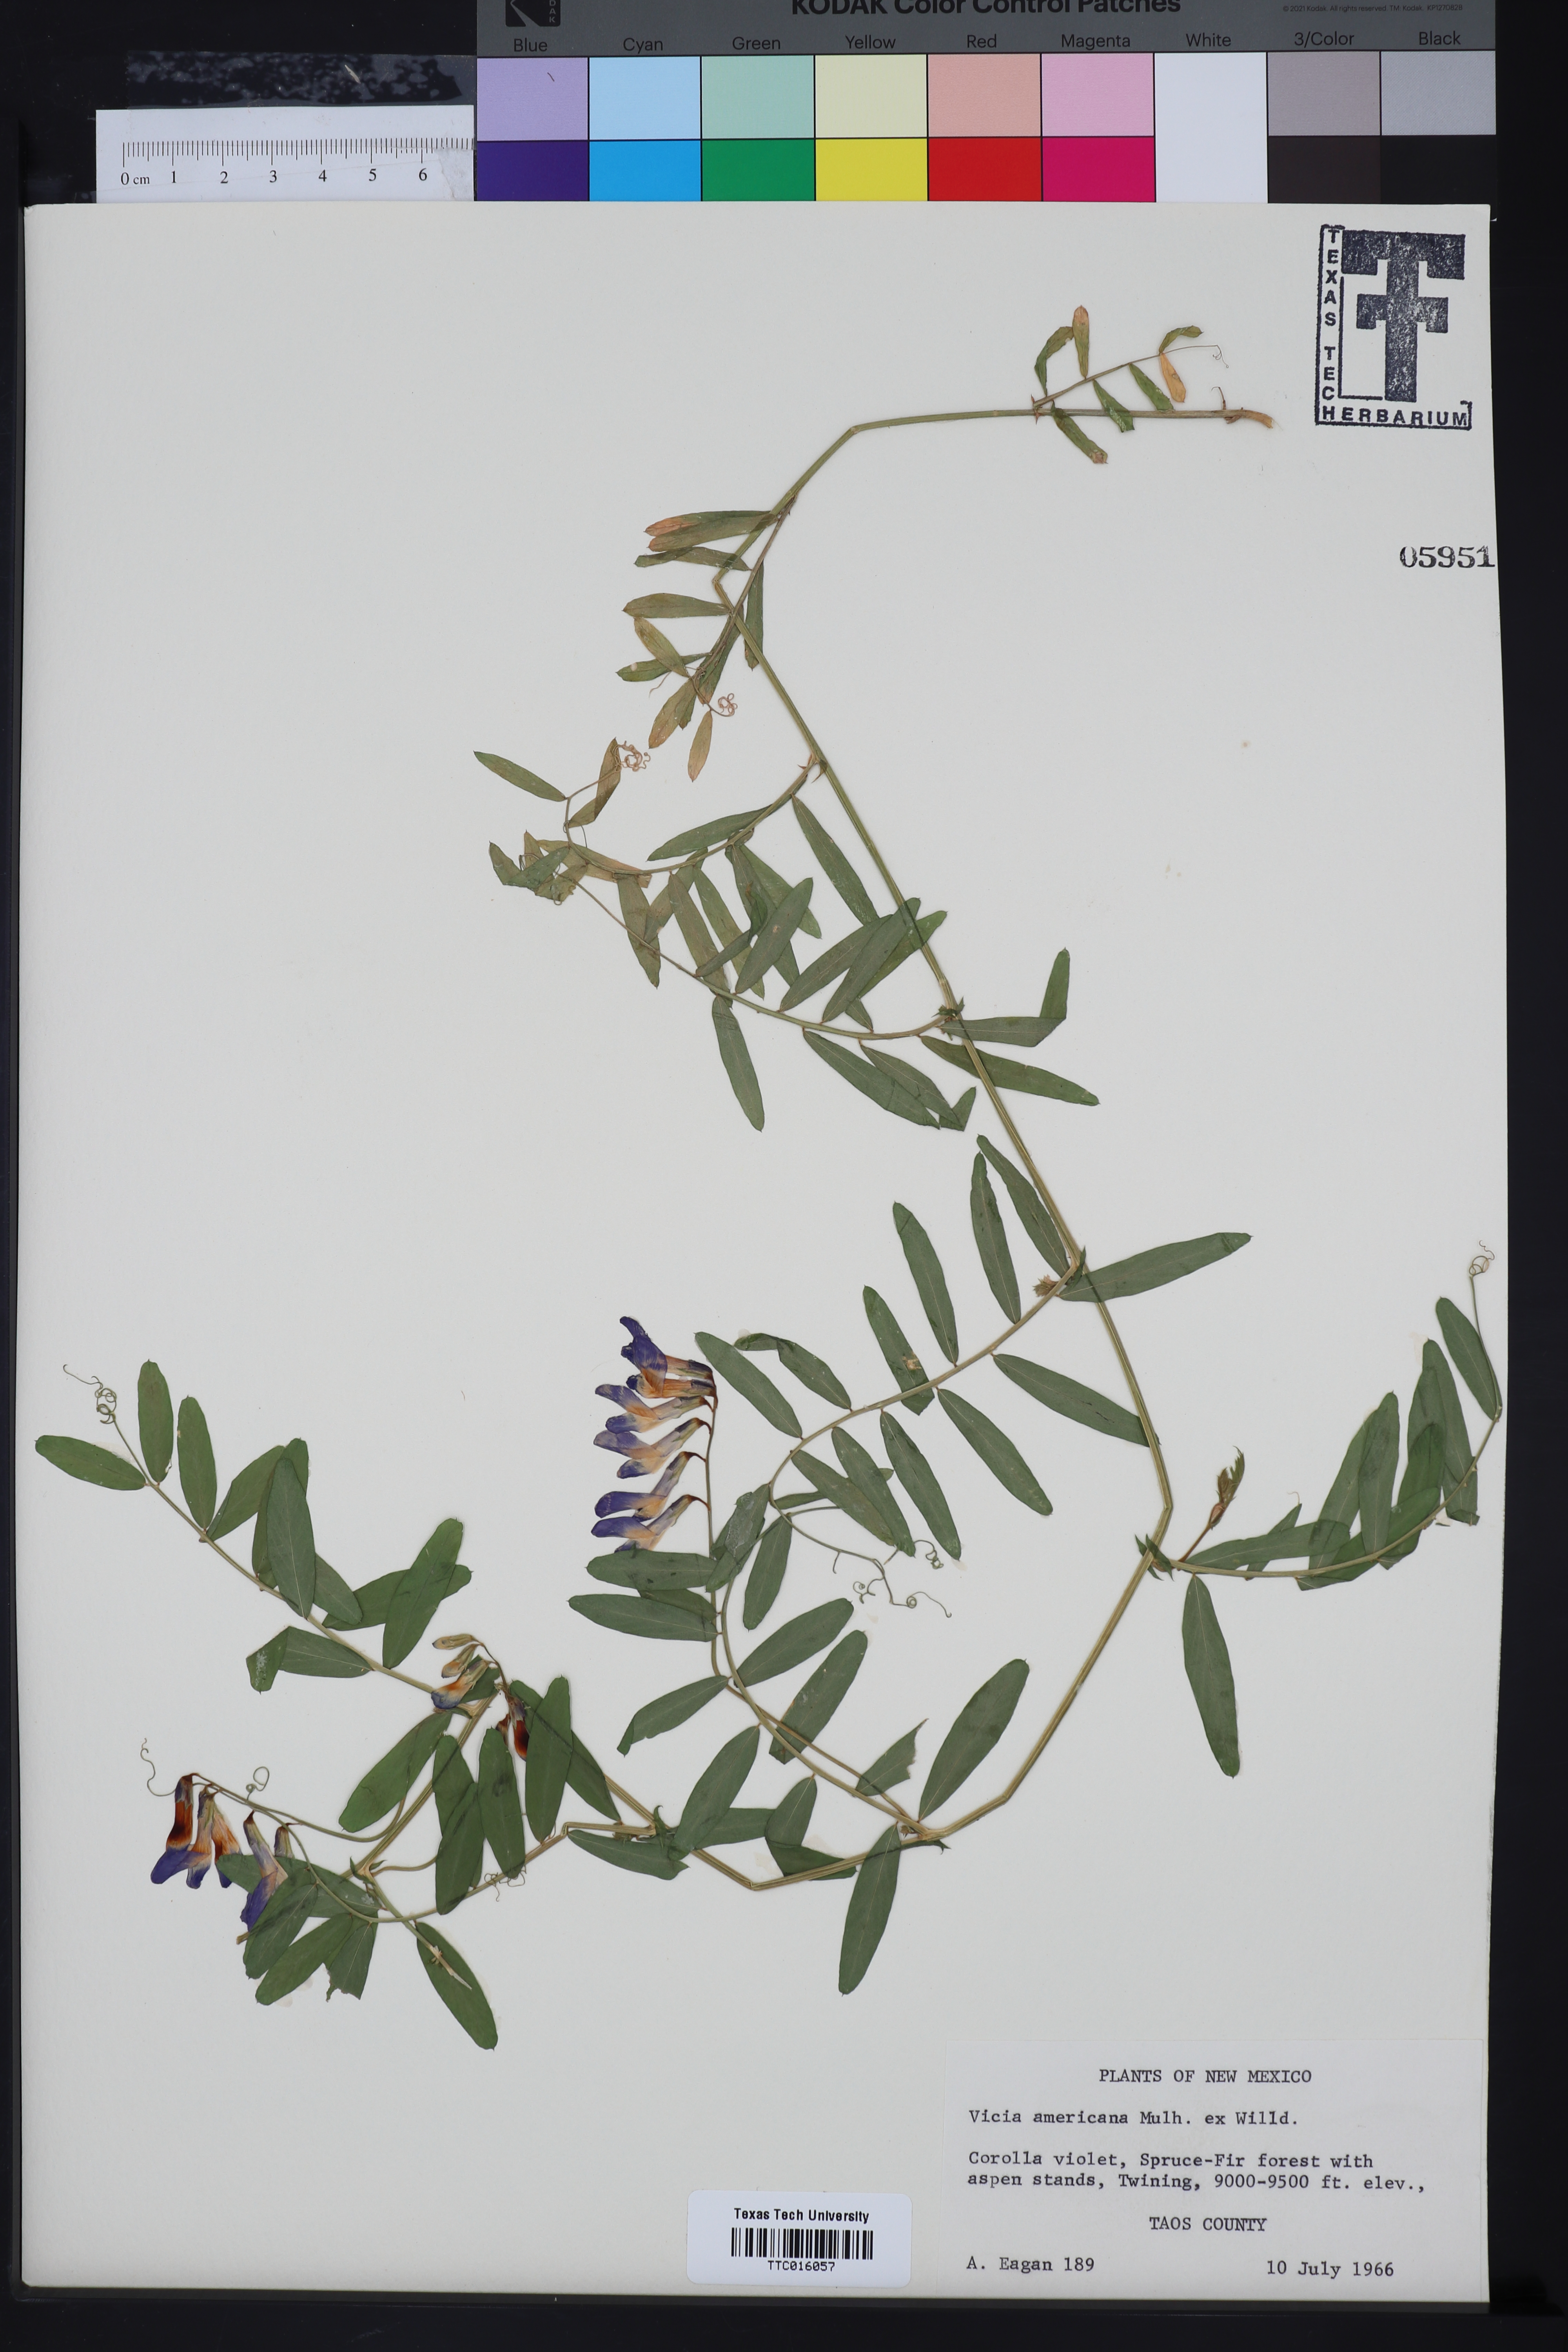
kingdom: Plantae
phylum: Tracheophyta
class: Magnoliopsida
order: Fabales
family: Fabaceae
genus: Vicia
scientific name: Vicia americana
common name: American vetch
